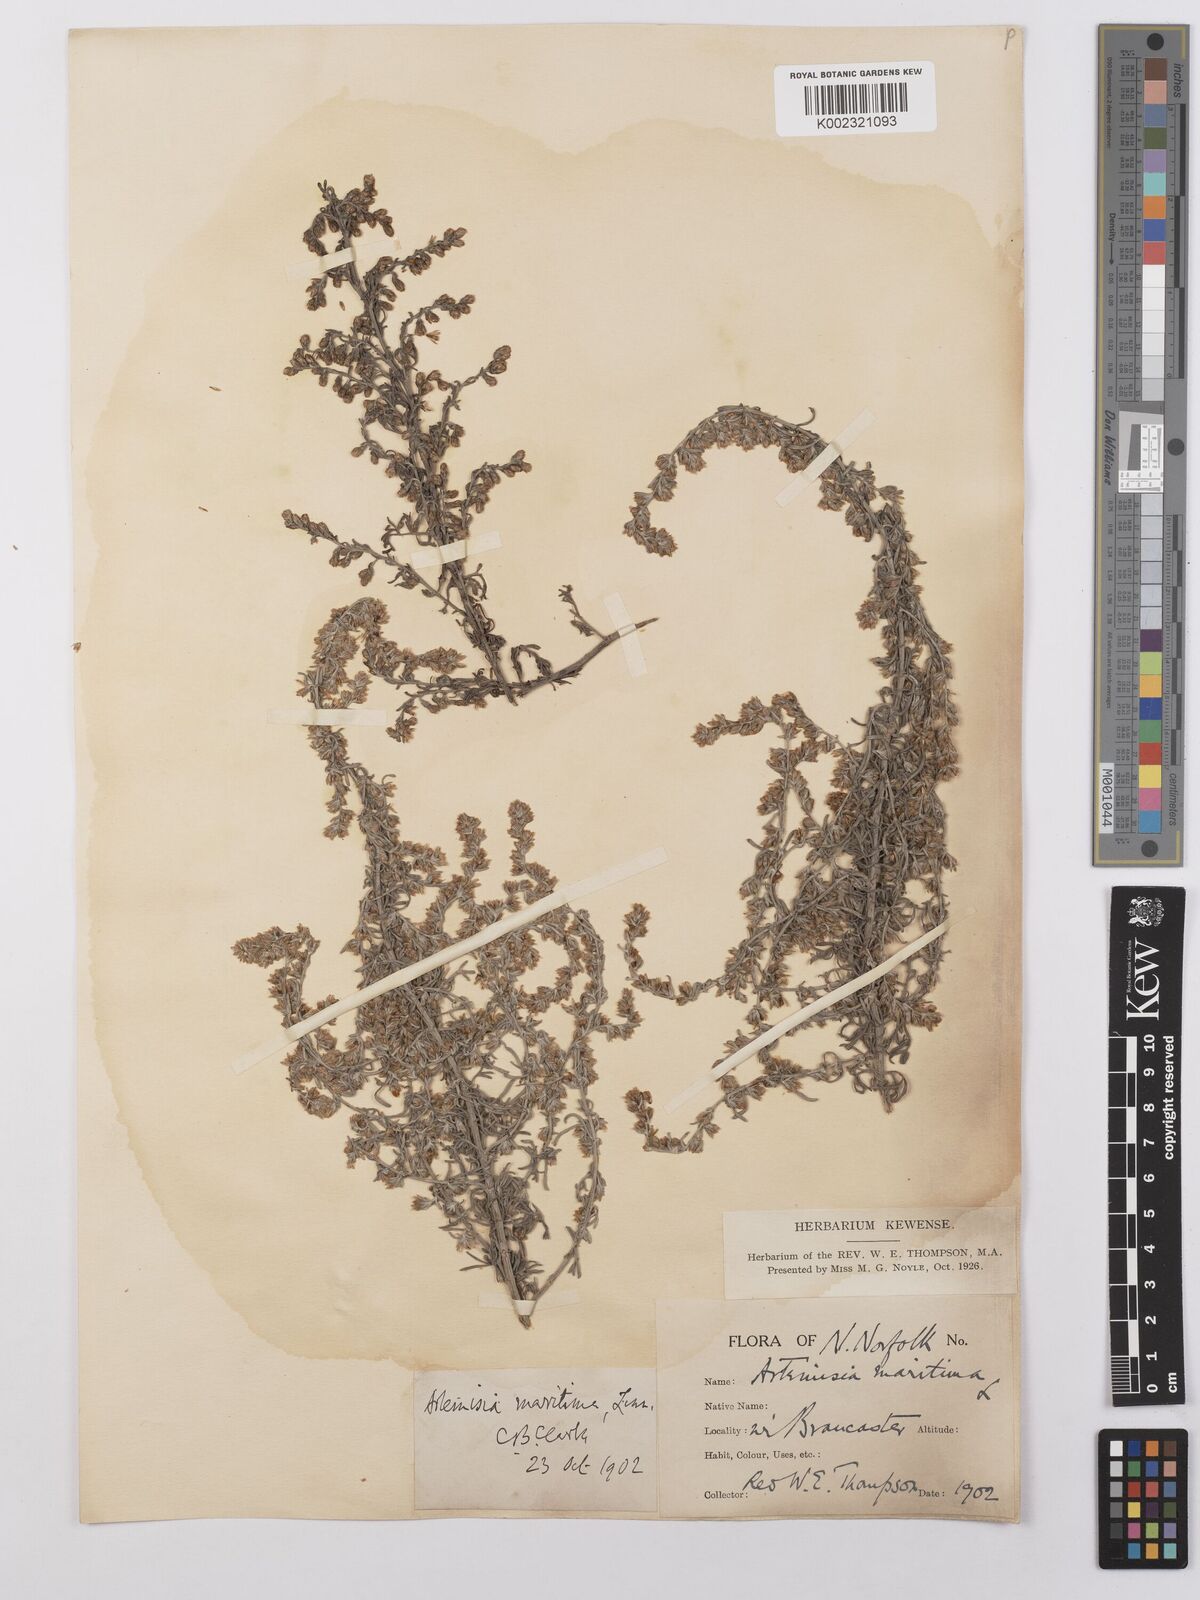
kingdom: Plantae
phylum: Tracheophyta
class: Magnoliopsida
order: Asterales
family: Asteraceae
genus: Artemisia
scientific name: Artemisia maritima
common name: Wormseed
